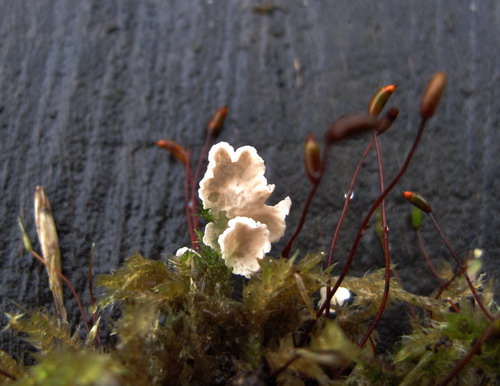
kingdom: Fungi
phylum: Basidiomycota
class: Agaricomycetes
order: Agaricales
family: Hygrophoraceae
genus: Arrhenia
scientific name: Arrhenia retiruga
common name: lille fontænehat
